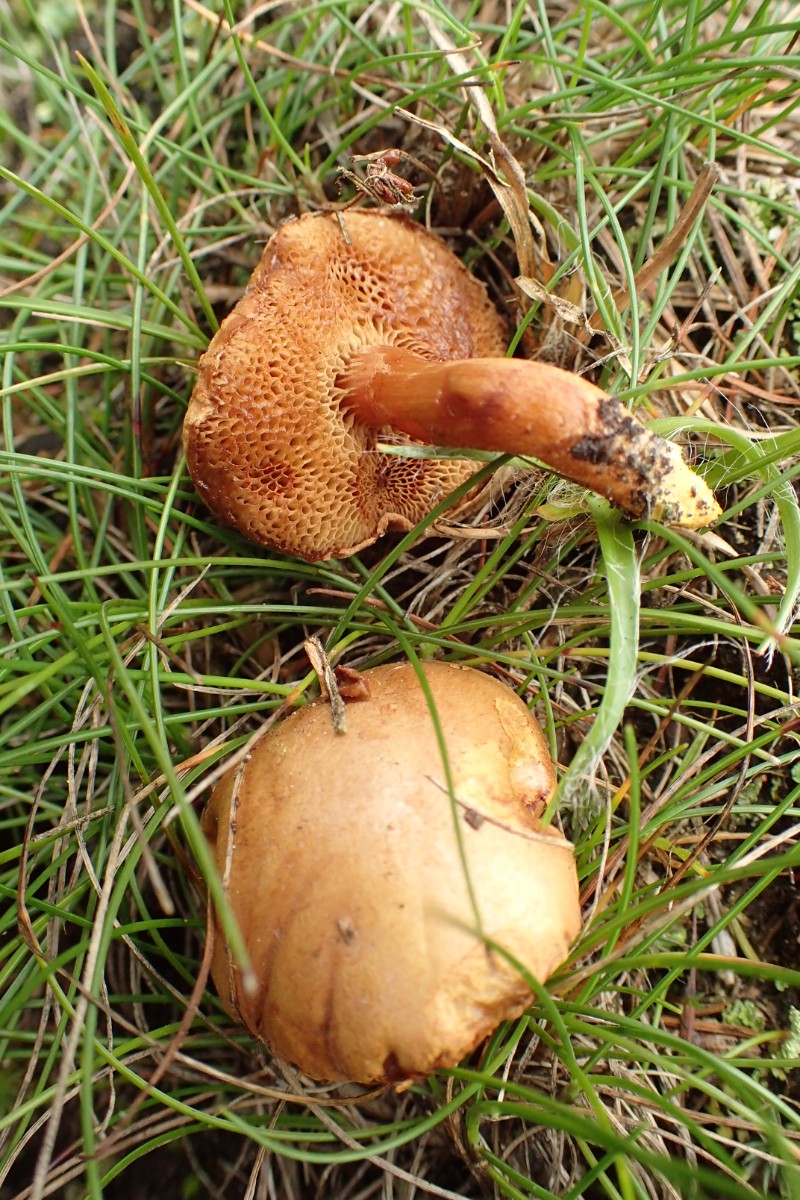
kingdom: Fungi
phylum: Basidiomycota
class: Agaricomycetes
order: Boletales
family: Boletaceae
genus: Chalciporus
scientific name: Chalciporus piperatus
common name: peberrørhat
